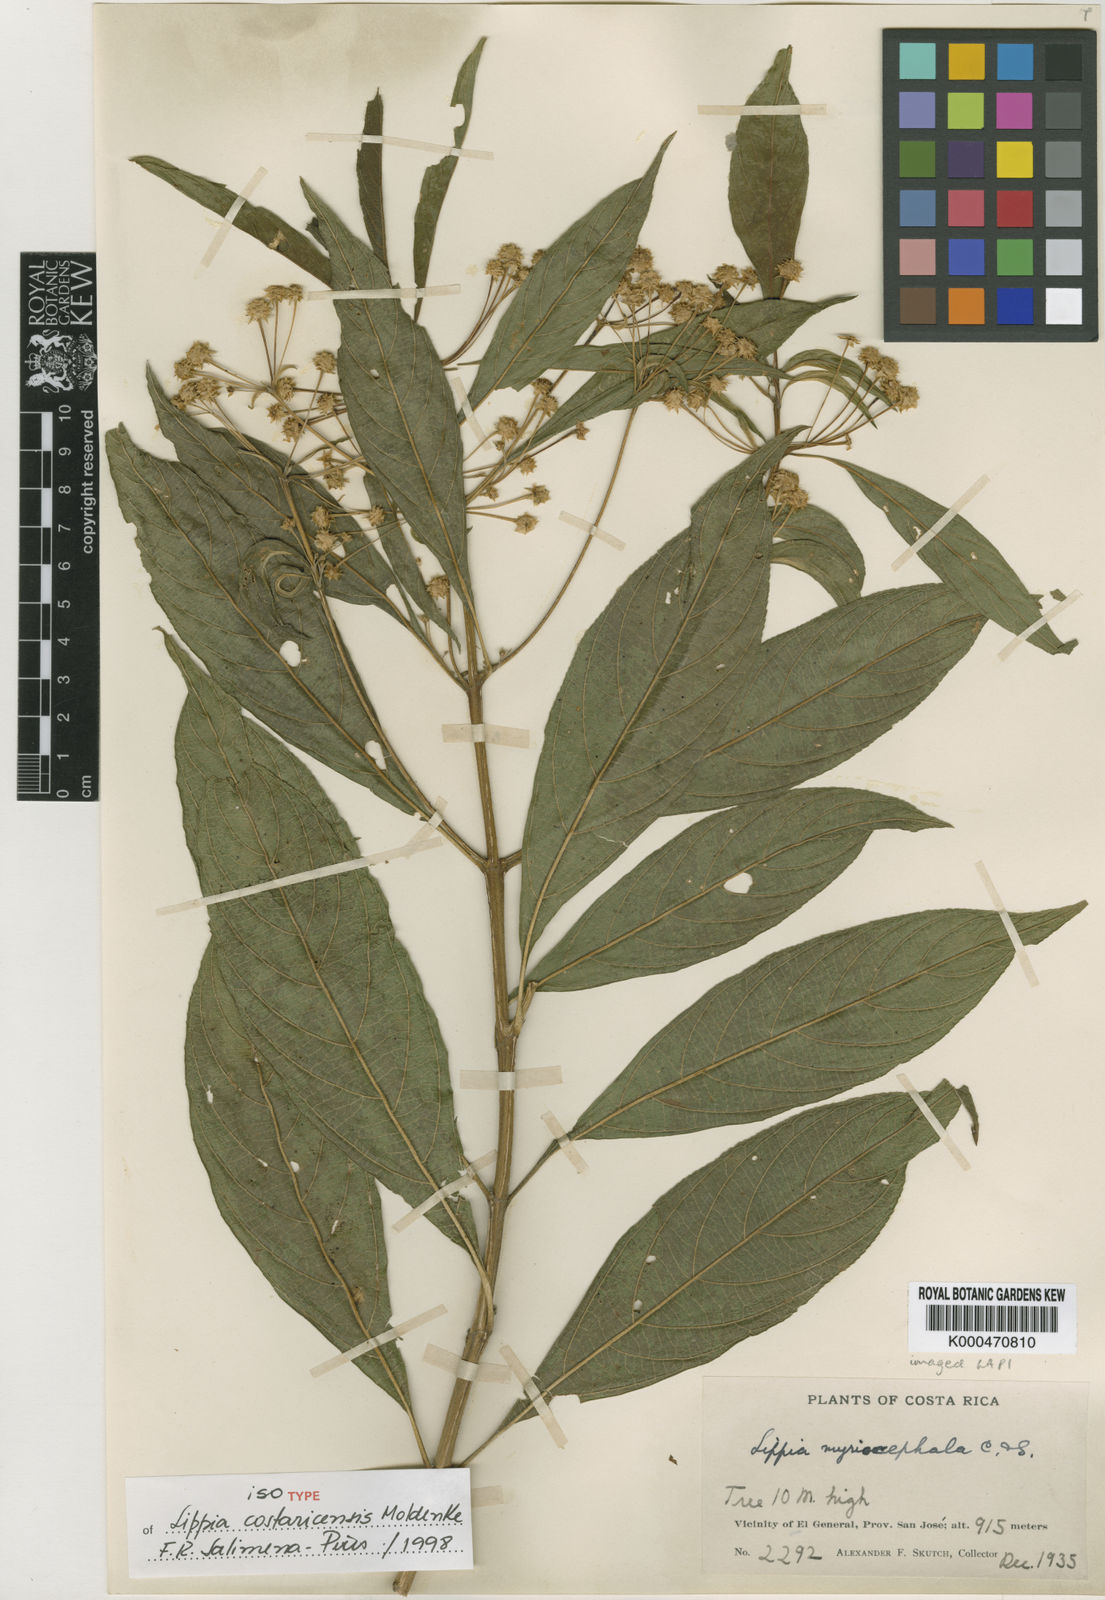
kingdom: Plantae
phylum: Tracheophyta
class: Magnoliopsida
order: Lamiales
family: Verbenaceae
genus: Lippia
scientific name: Lippia umbellata
